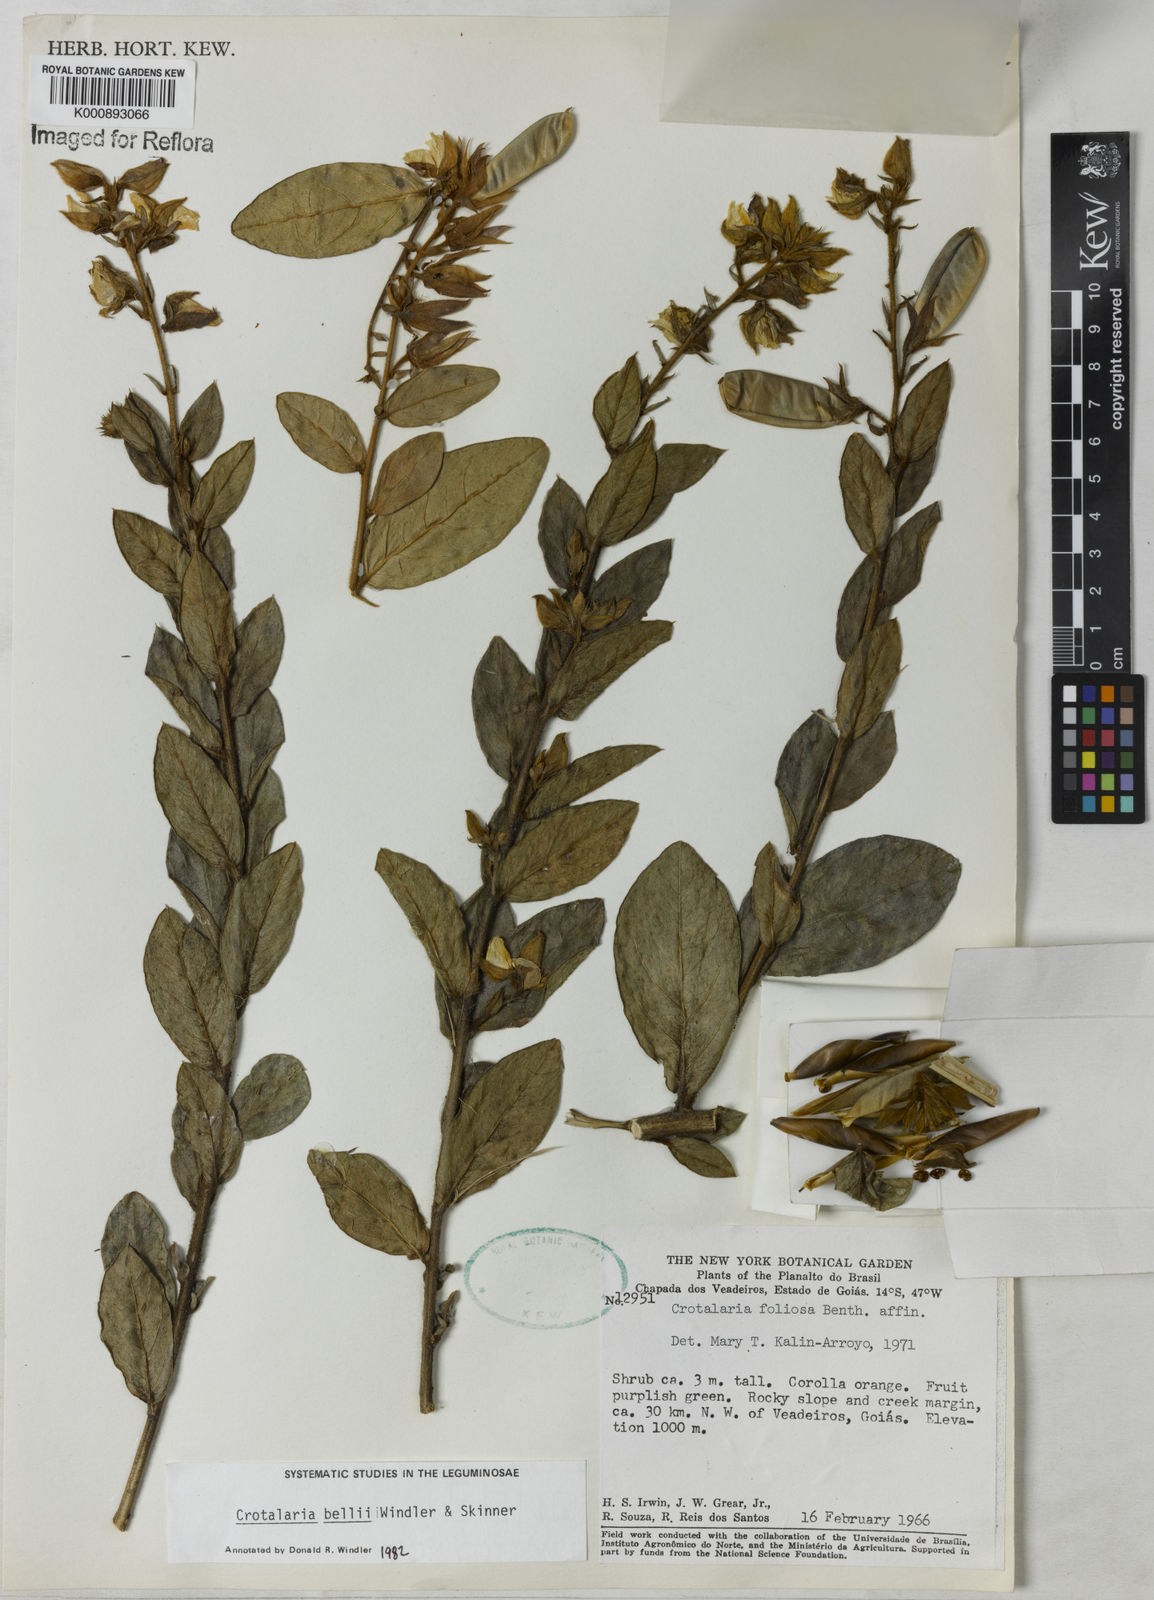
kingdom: Plantae
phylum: Tracheophyta
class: Magnoliopsida
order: Fabales
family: Fabaceae
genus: Crotalaria
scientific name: Crotalaria subdecurrens
